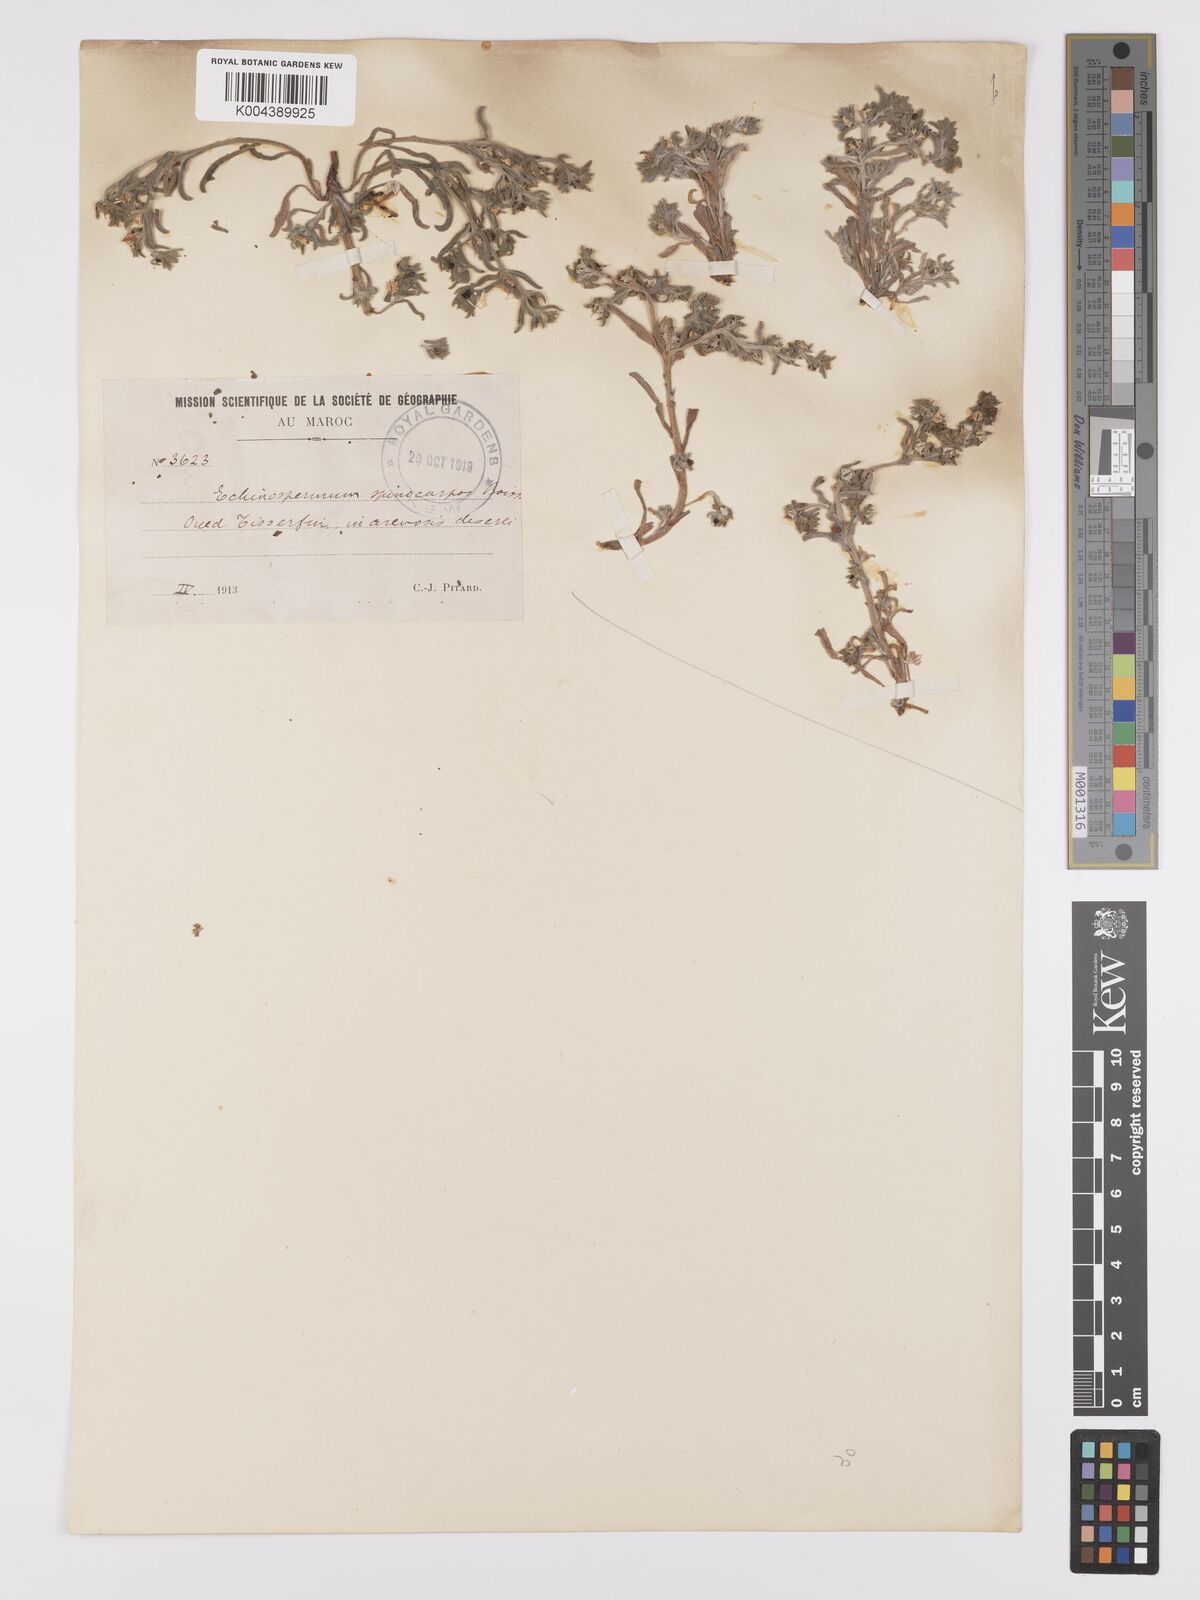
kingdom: Plantae
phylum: Tracheophyta
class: Magnoliopsida
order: Boraginales
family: Boraginaceae
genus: Lappula
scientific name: Lappula spinocarpos
